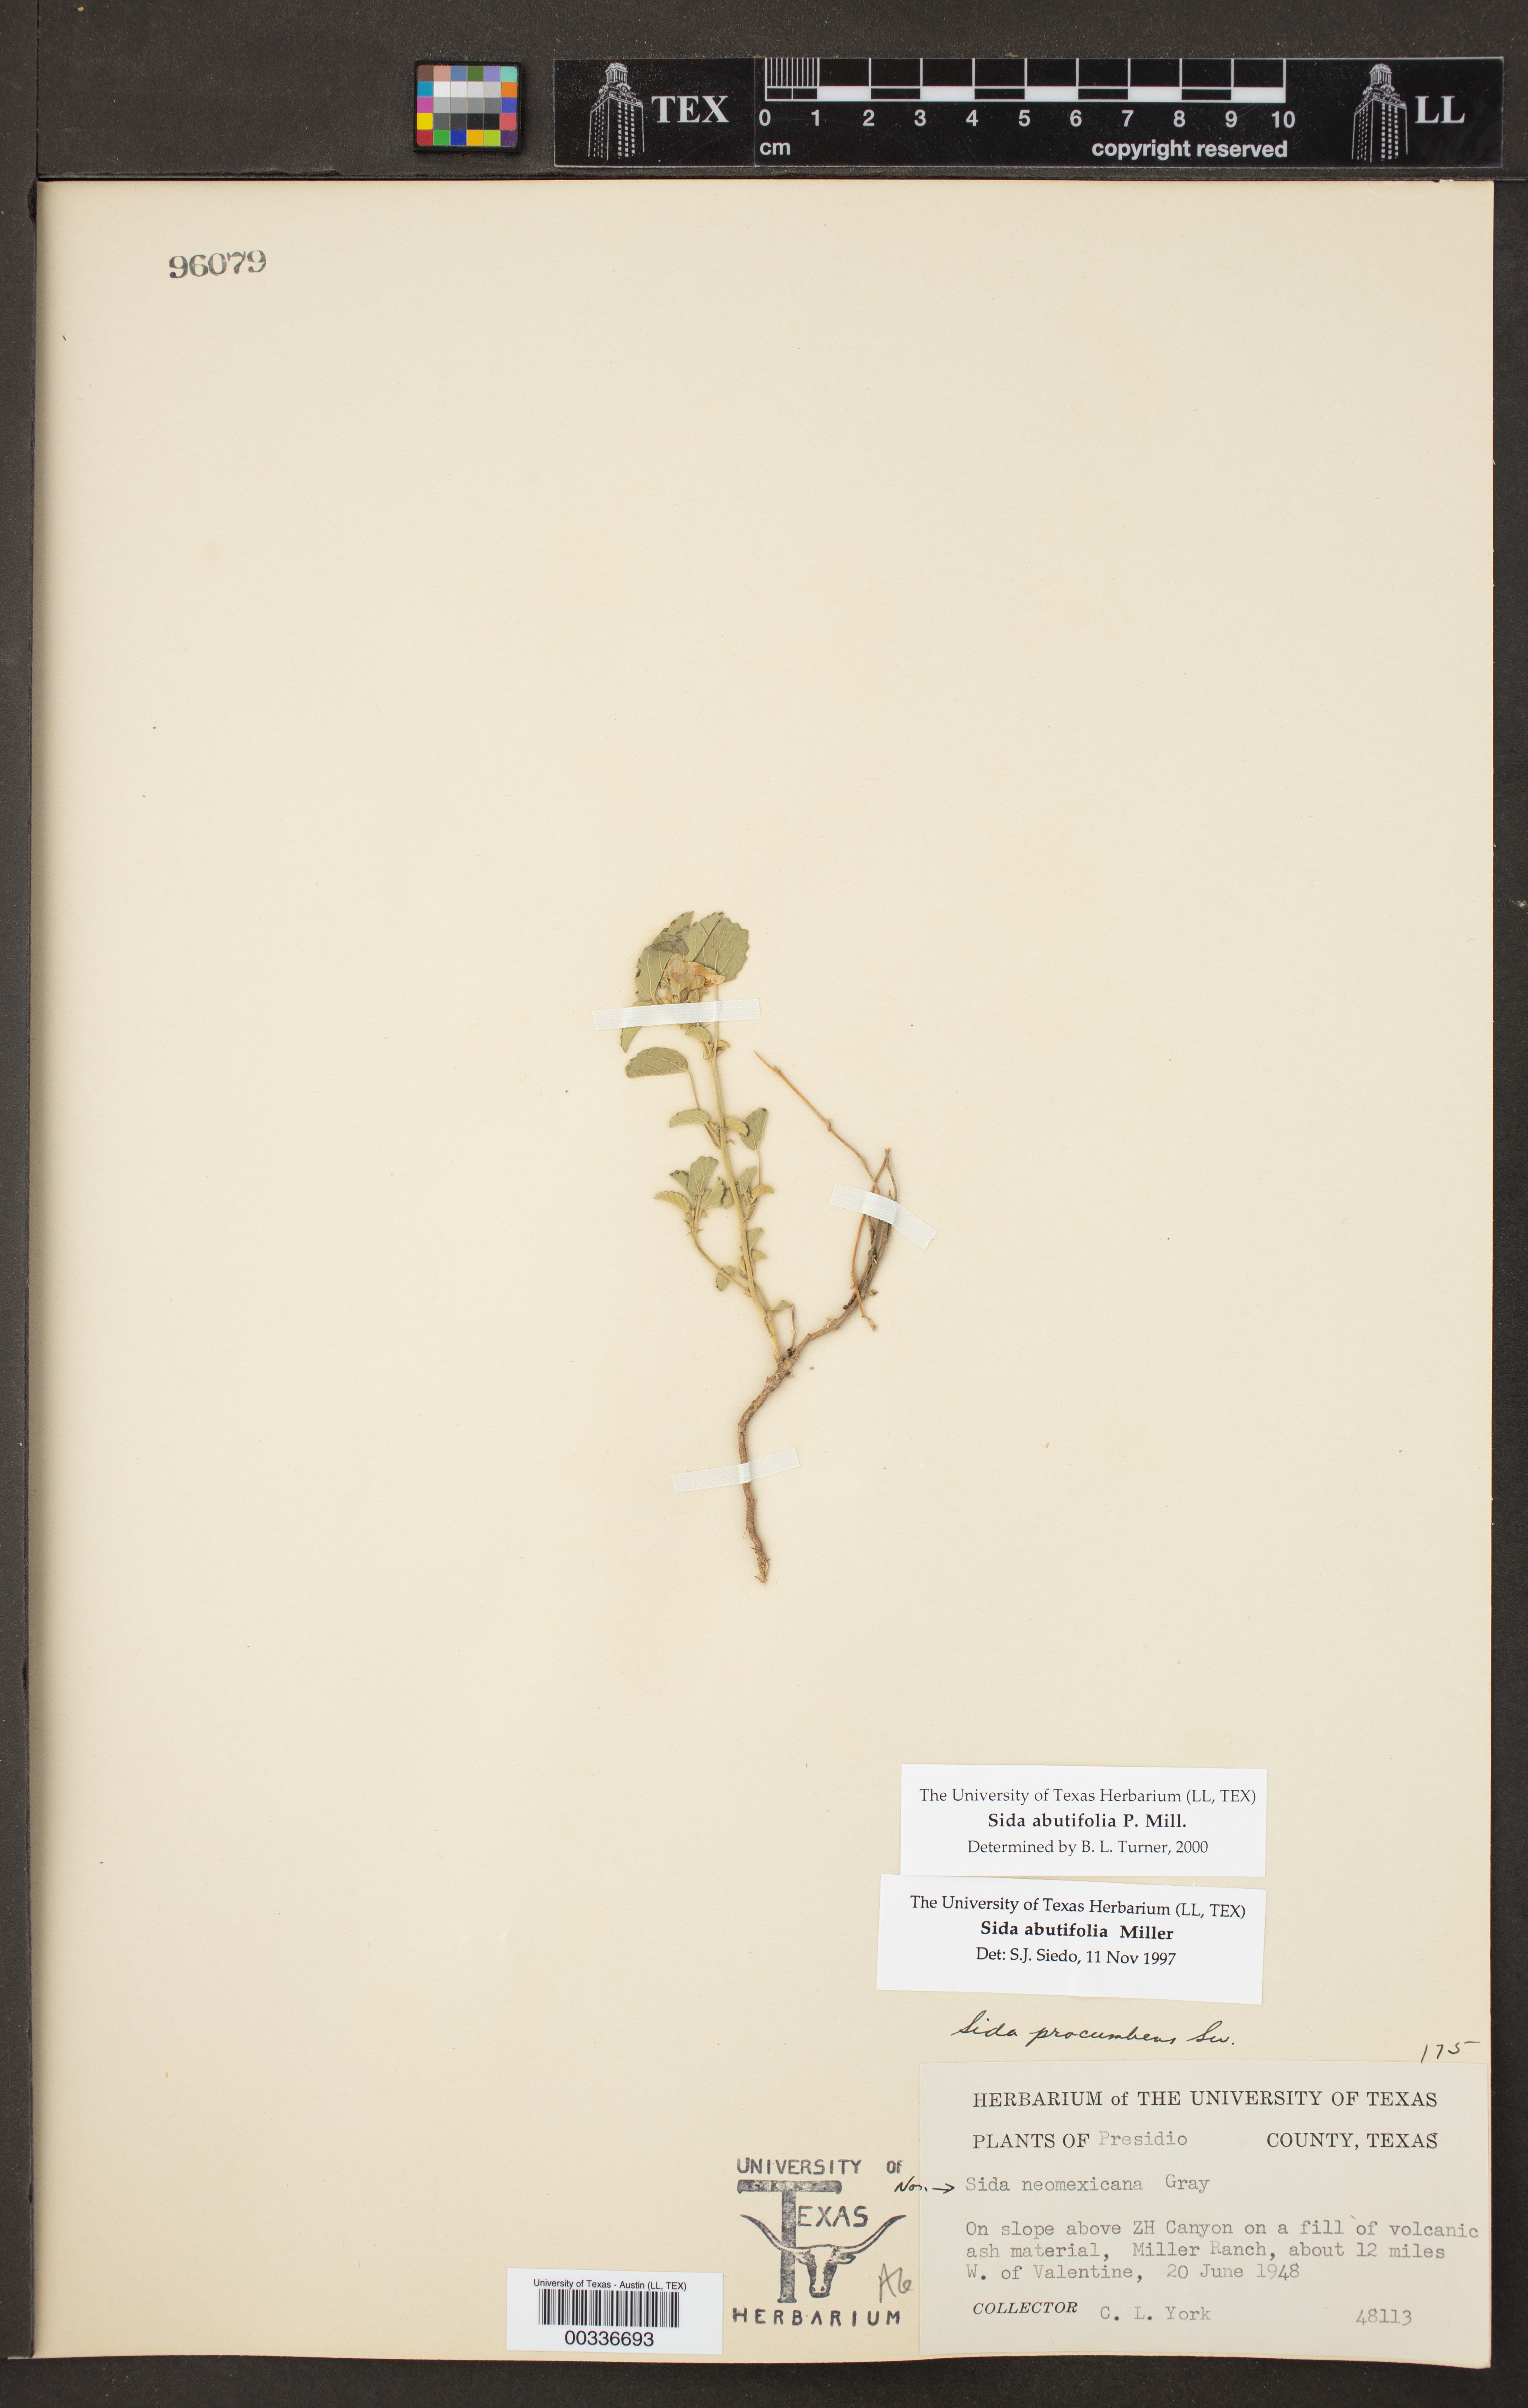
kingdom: Plantae
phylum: Tracheophyta
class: Magnoliopsida
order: Malvales
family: Malvaceae
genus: Sida
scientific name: Sida abutilifolia
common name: Spreading fanpetals
